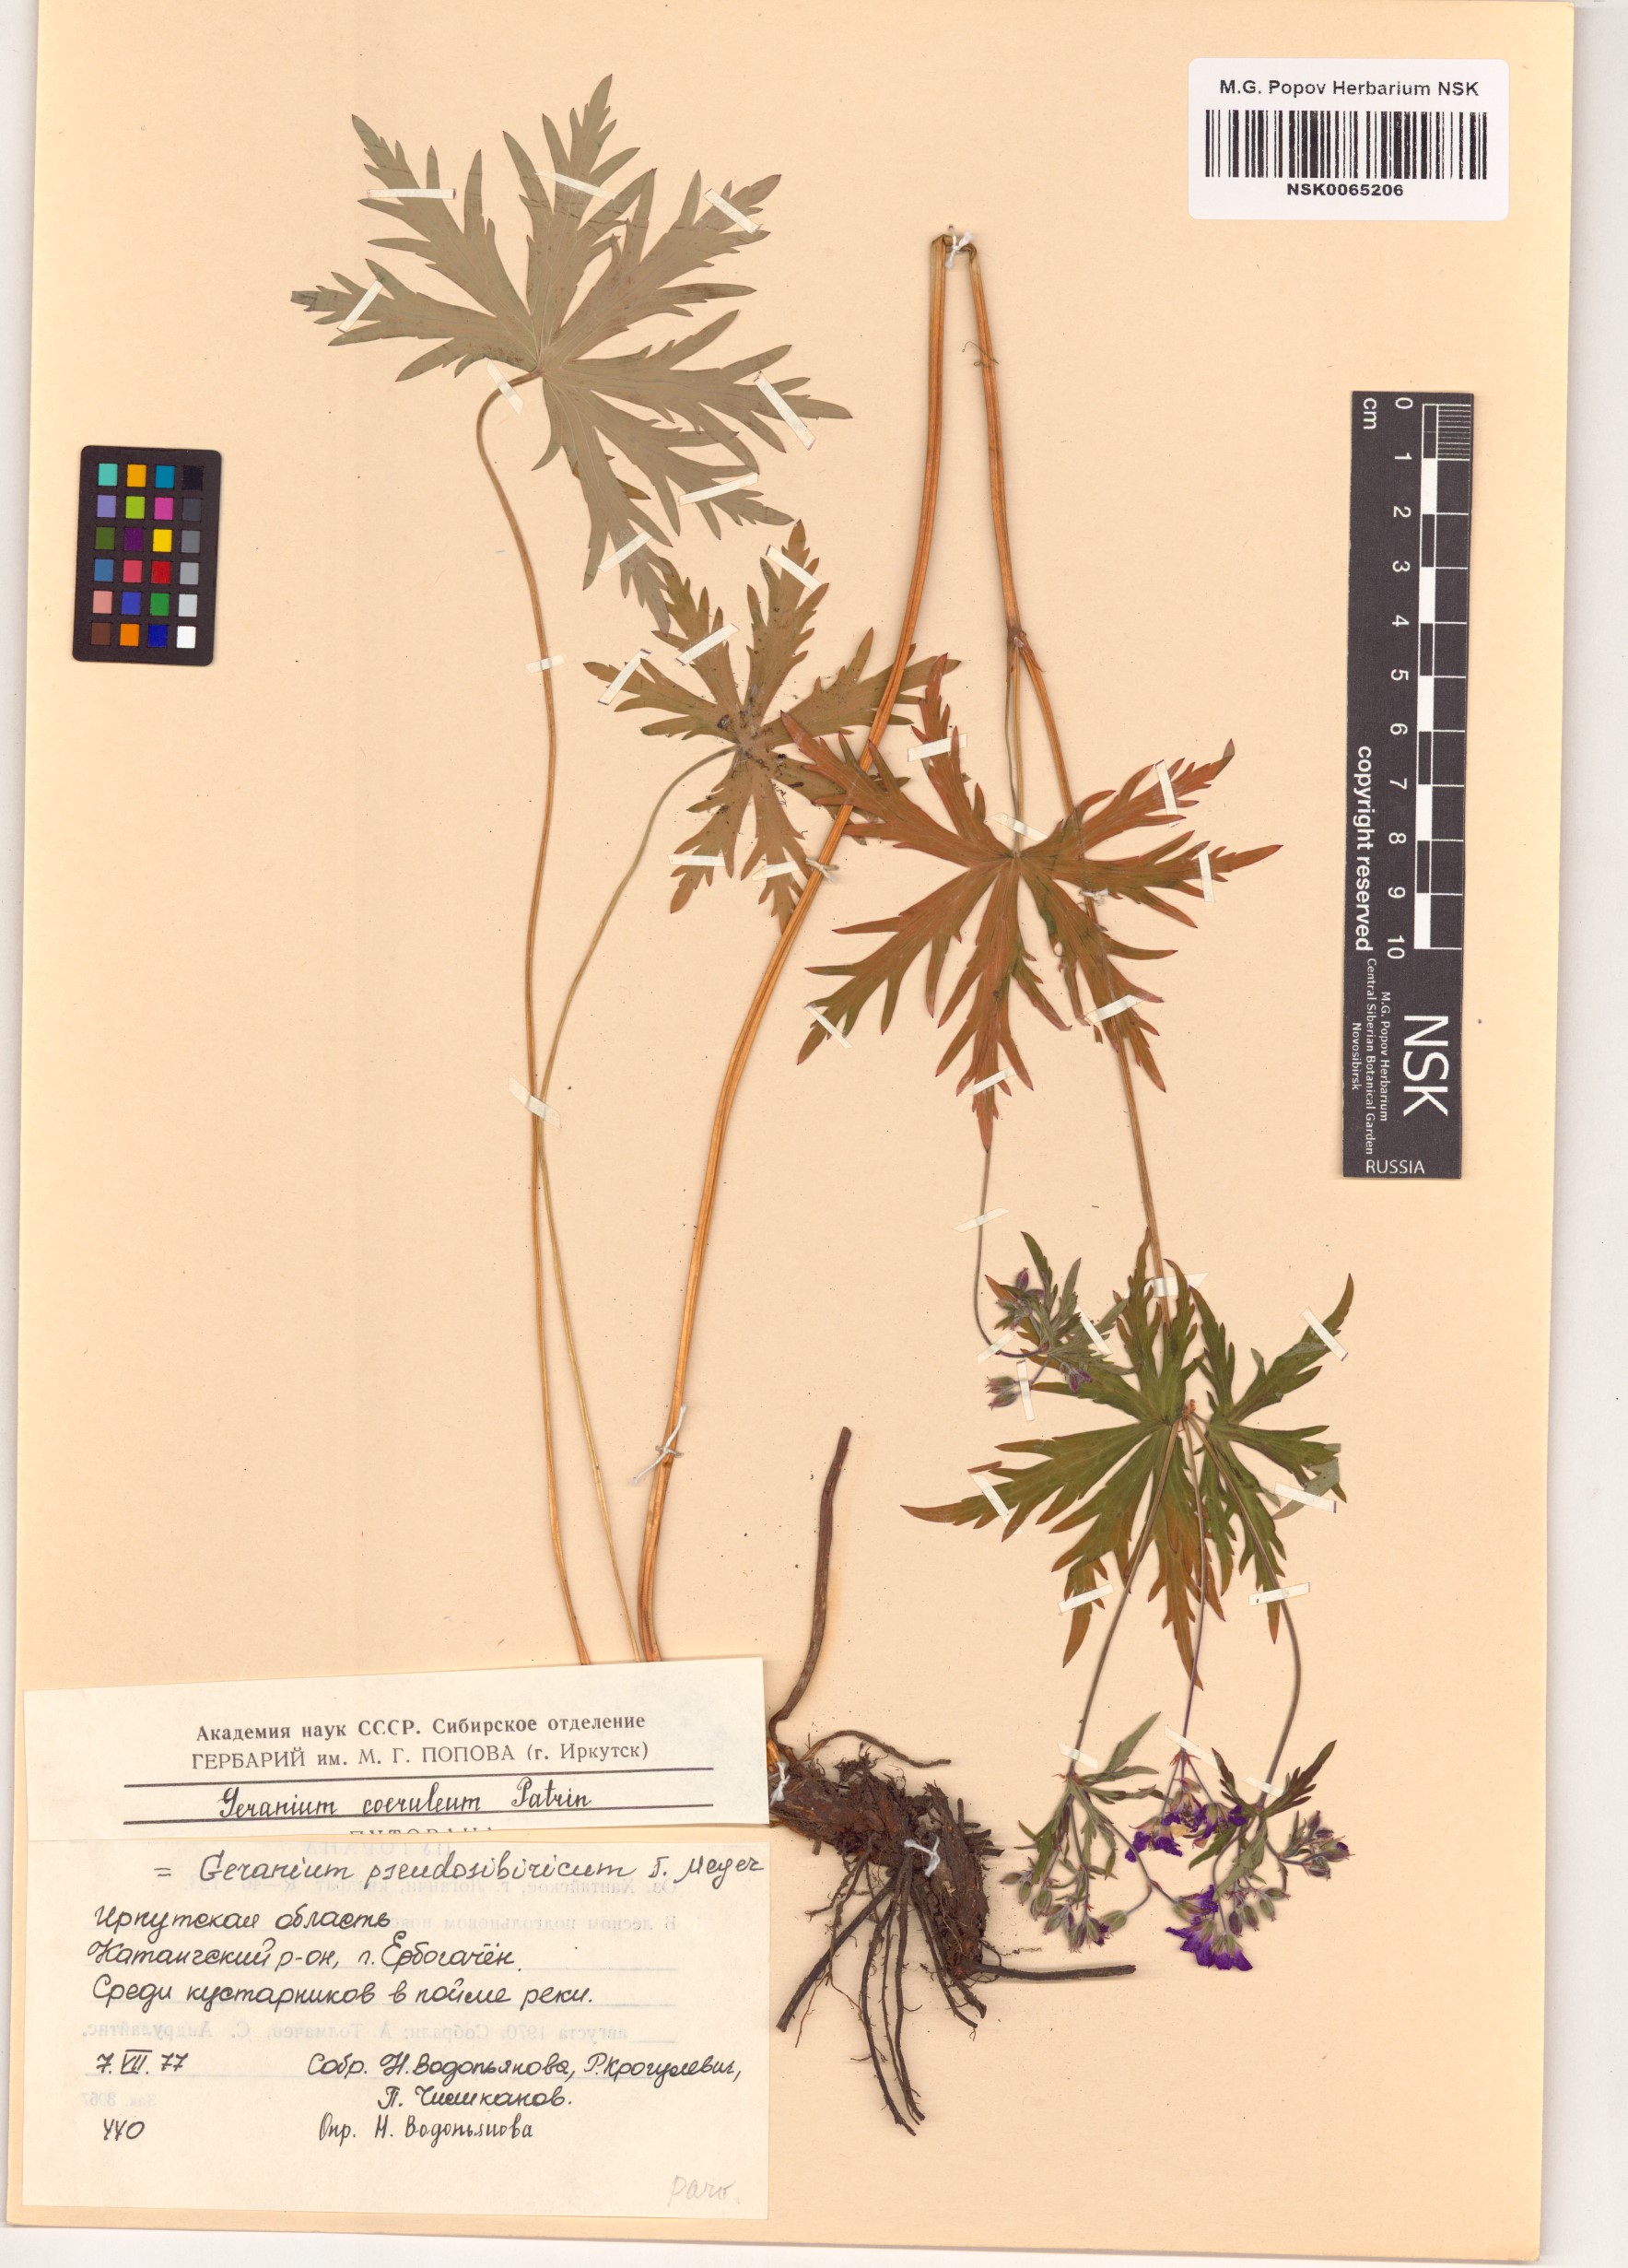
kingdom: Plantae
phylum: Tracheophyta
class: Magnoliopsida
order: Geraniales
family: Geraniaceae
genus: Geranium
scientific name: Geranium pseudosibiricum
